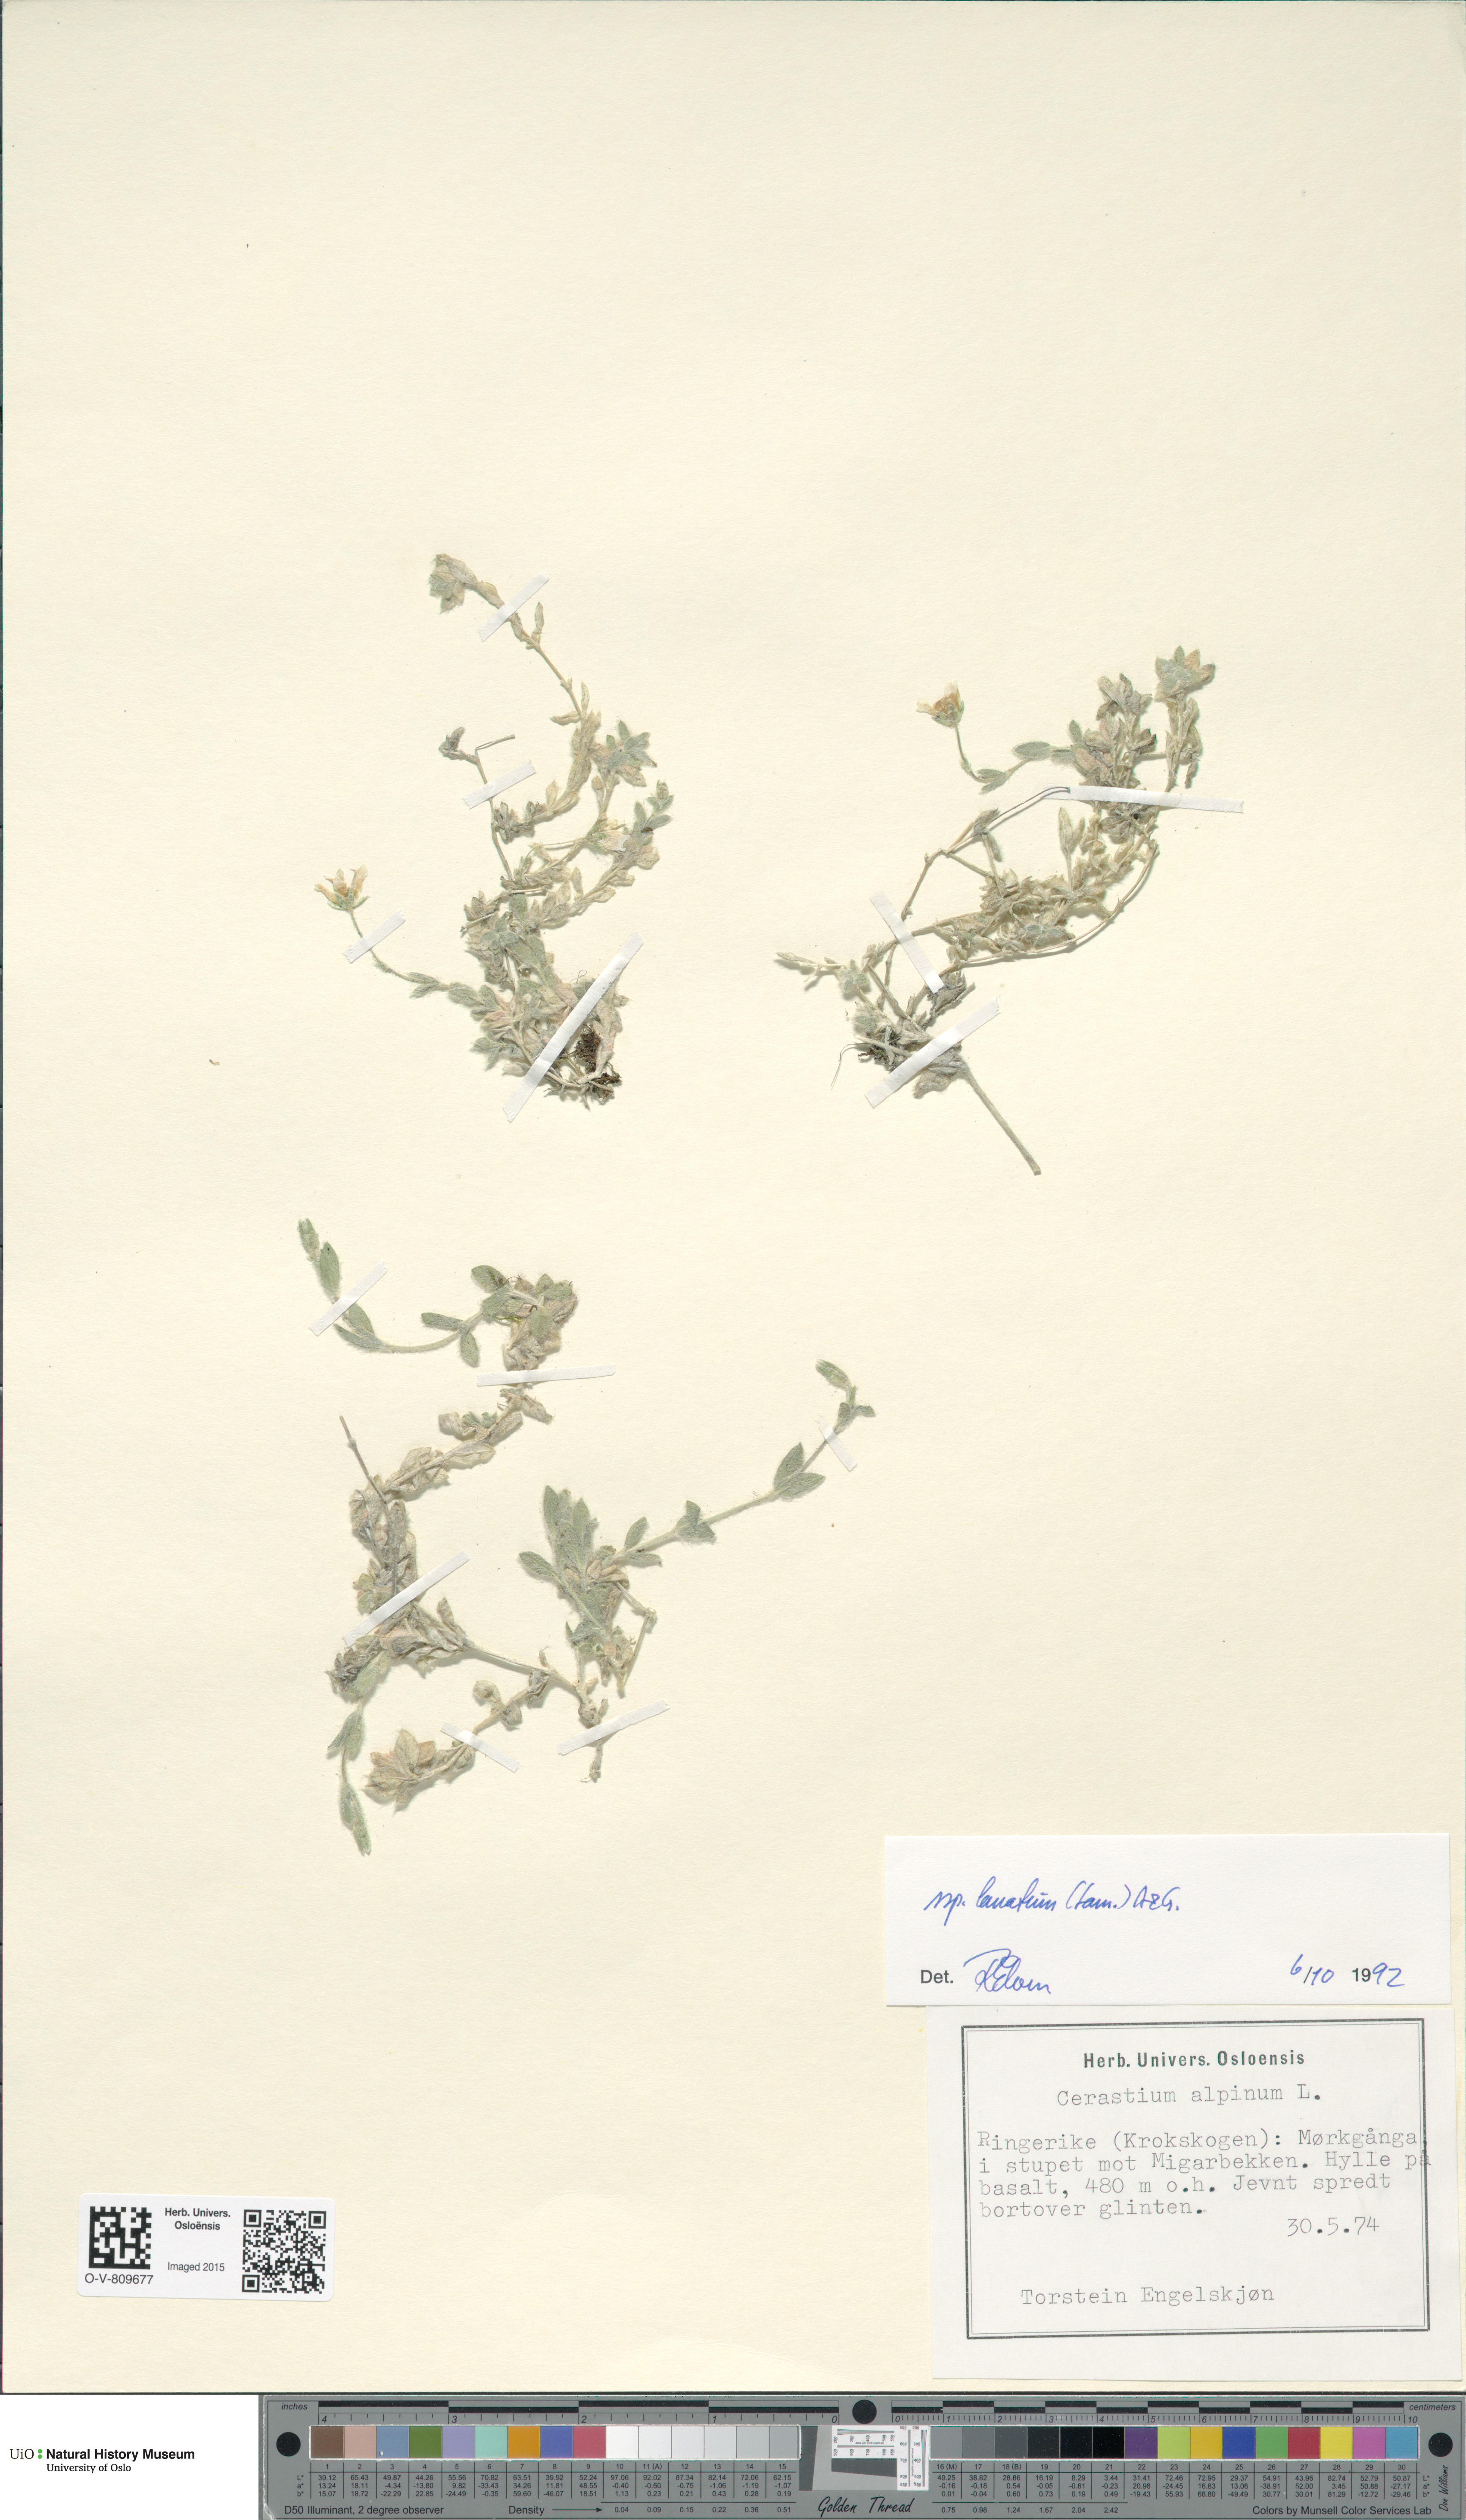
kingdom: Plantae
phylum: Tracheophyta
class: Magnoliopsida
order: Caryophyllales
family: Caryophyllaceae
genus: Cerastium
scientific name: Cerastium alpinum
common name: Alpine mouse-ear
